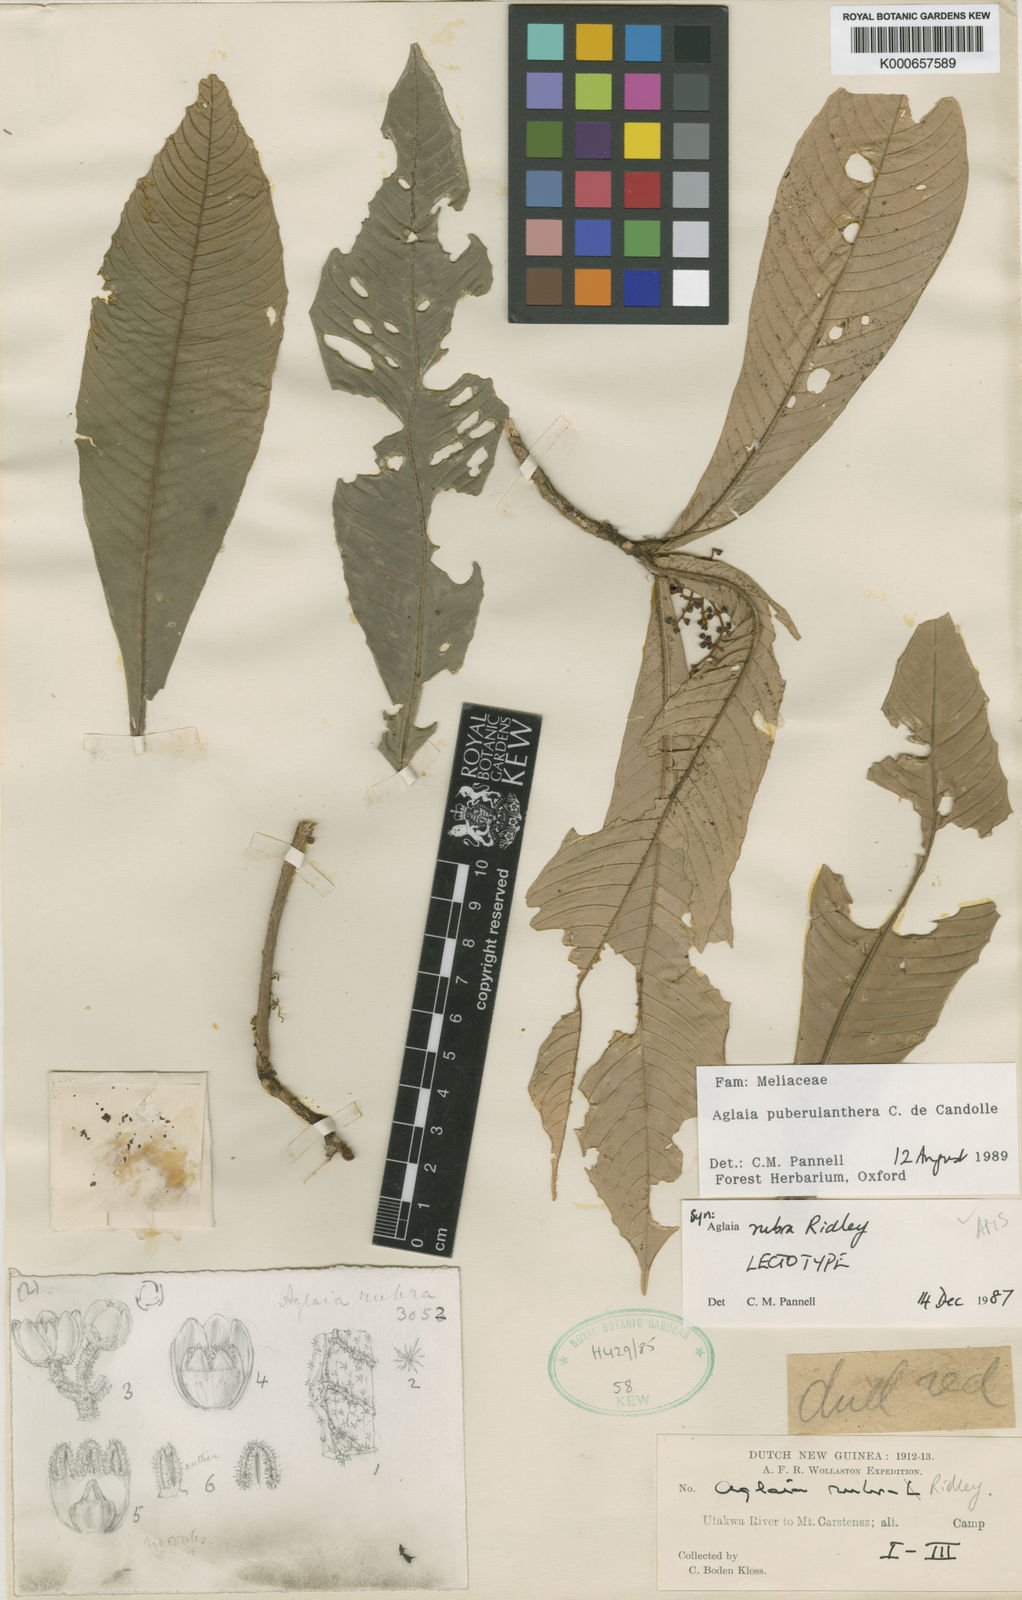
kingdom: Plantae
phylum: Tracheophyta
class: Magnoliopsida
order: Sapindales
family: Meliaceae
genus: Aglaia
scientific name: Aglaia puberulanthera
